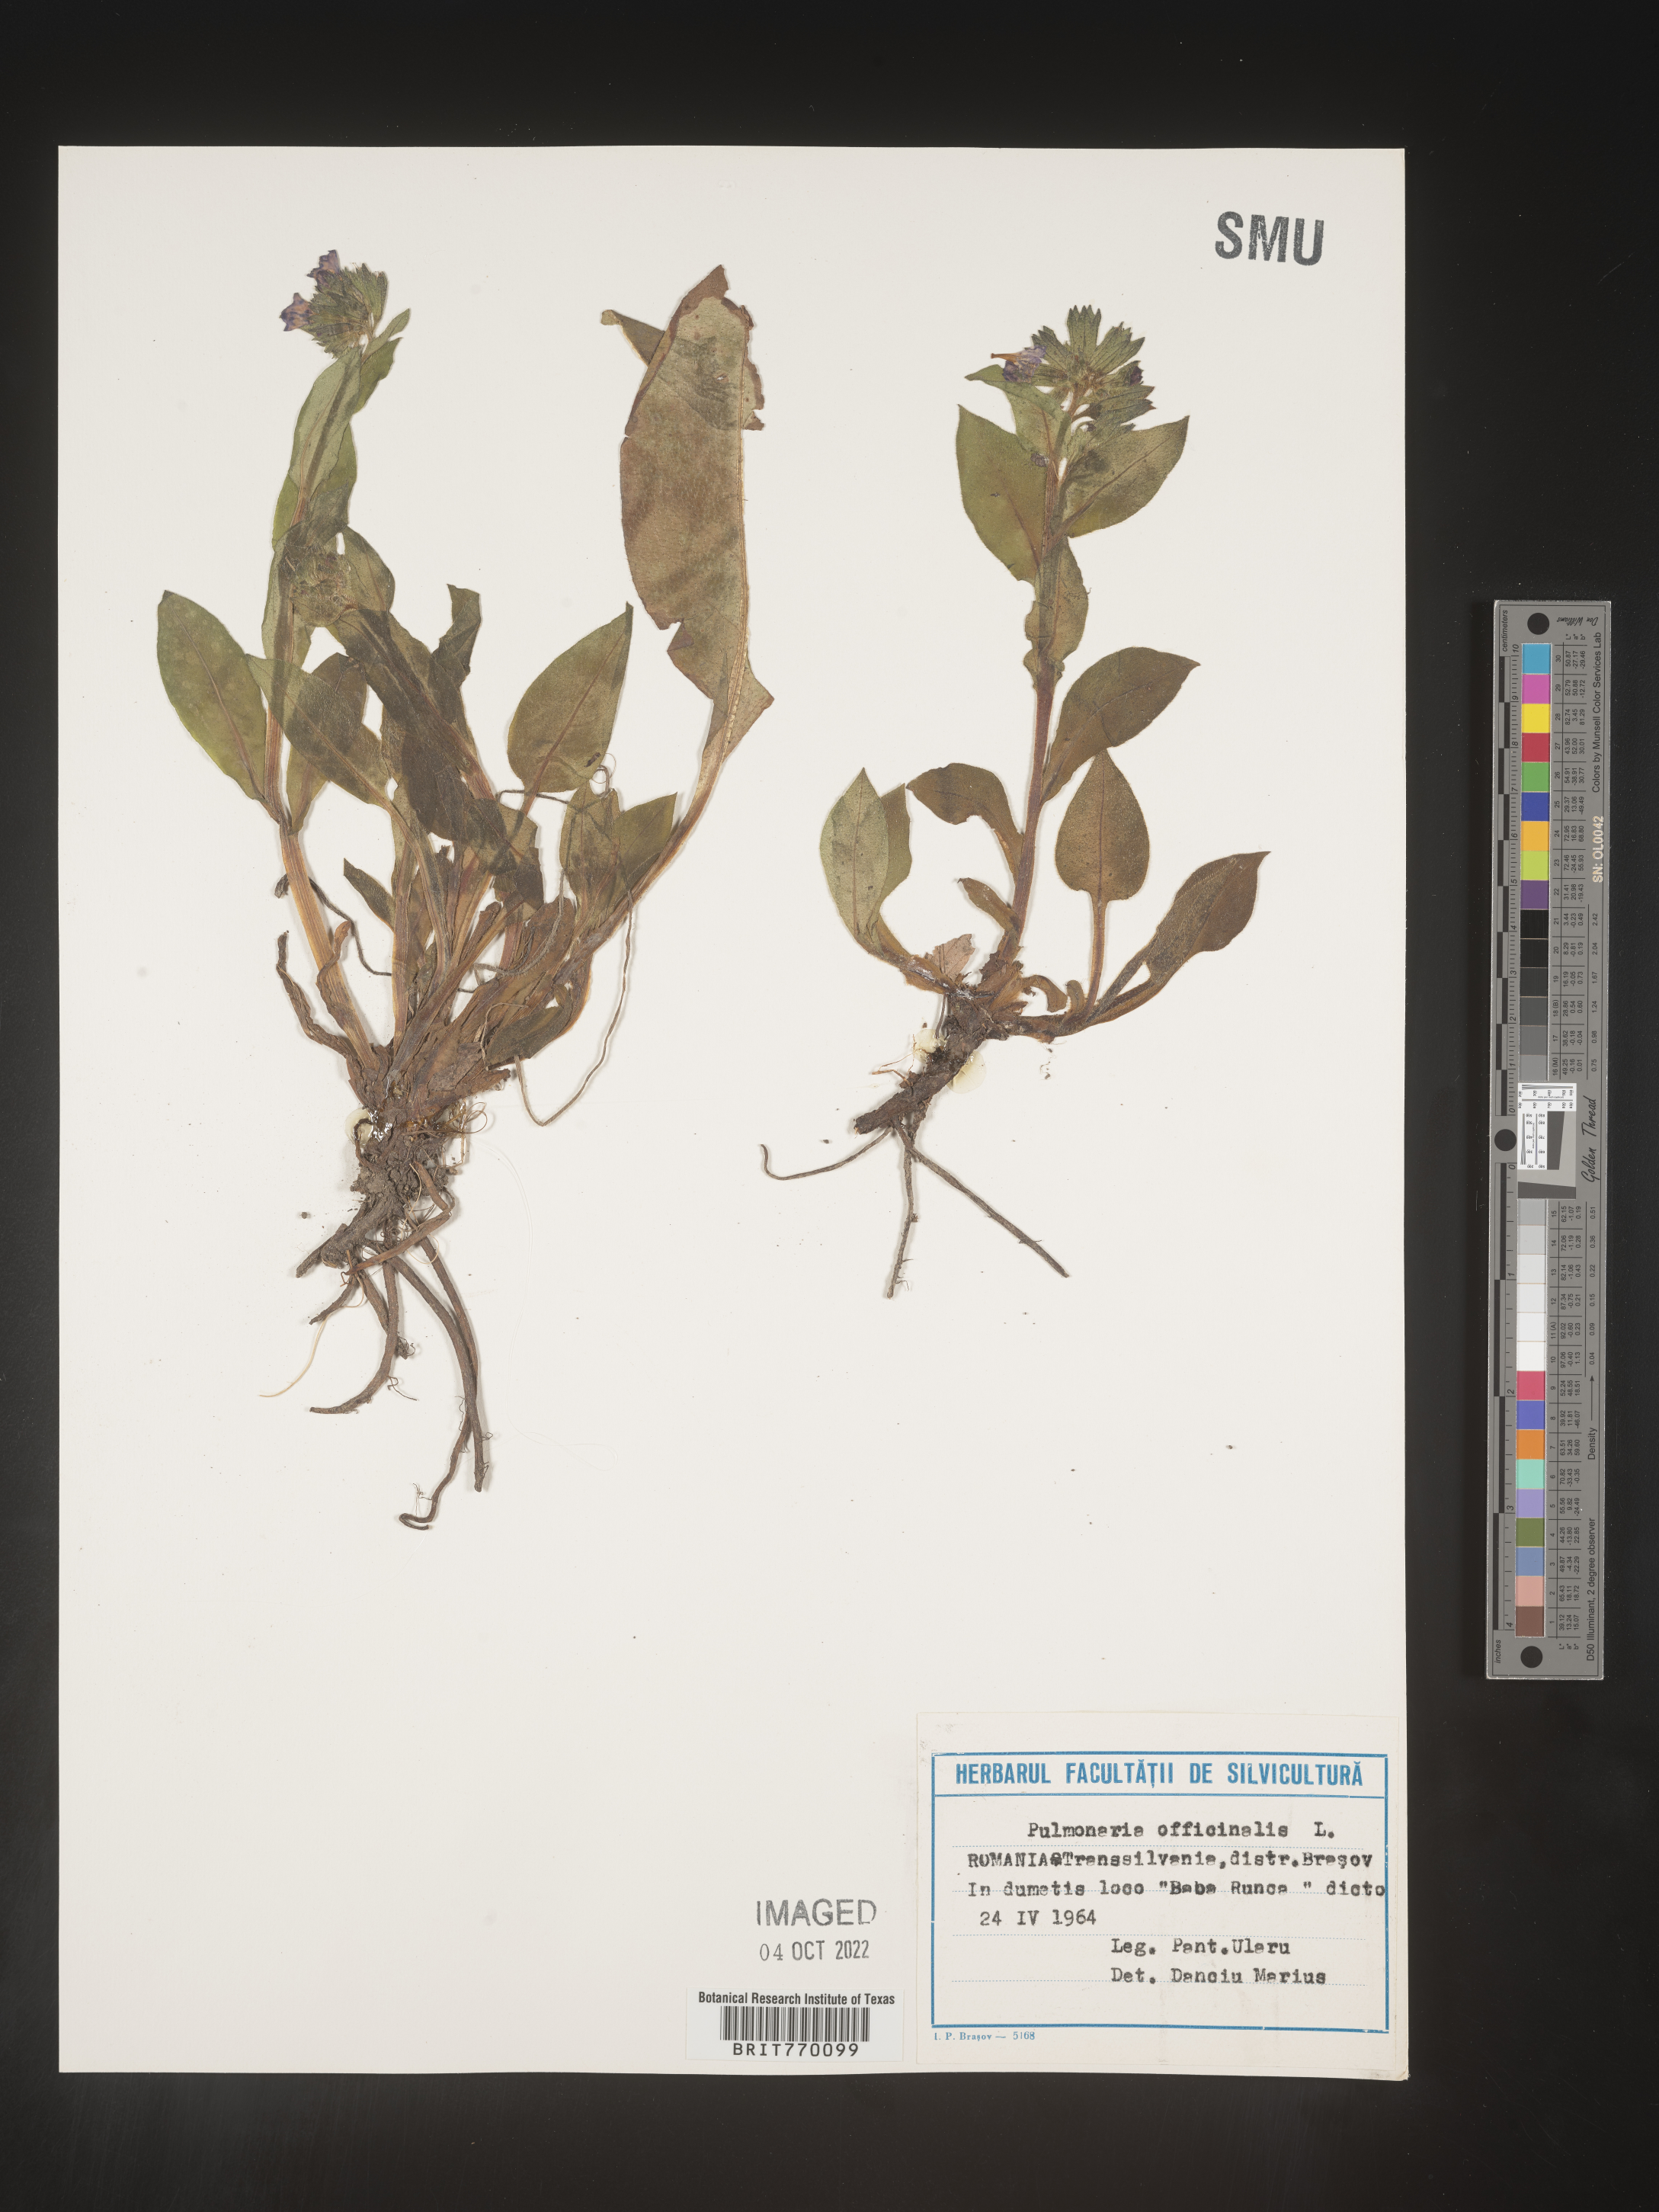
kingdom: Plantae
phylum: Tracheophyta
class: Magnoliopsida
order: Boraginales
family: Boraginaceae
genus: Pulmonaria
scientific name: Pulmonaria
